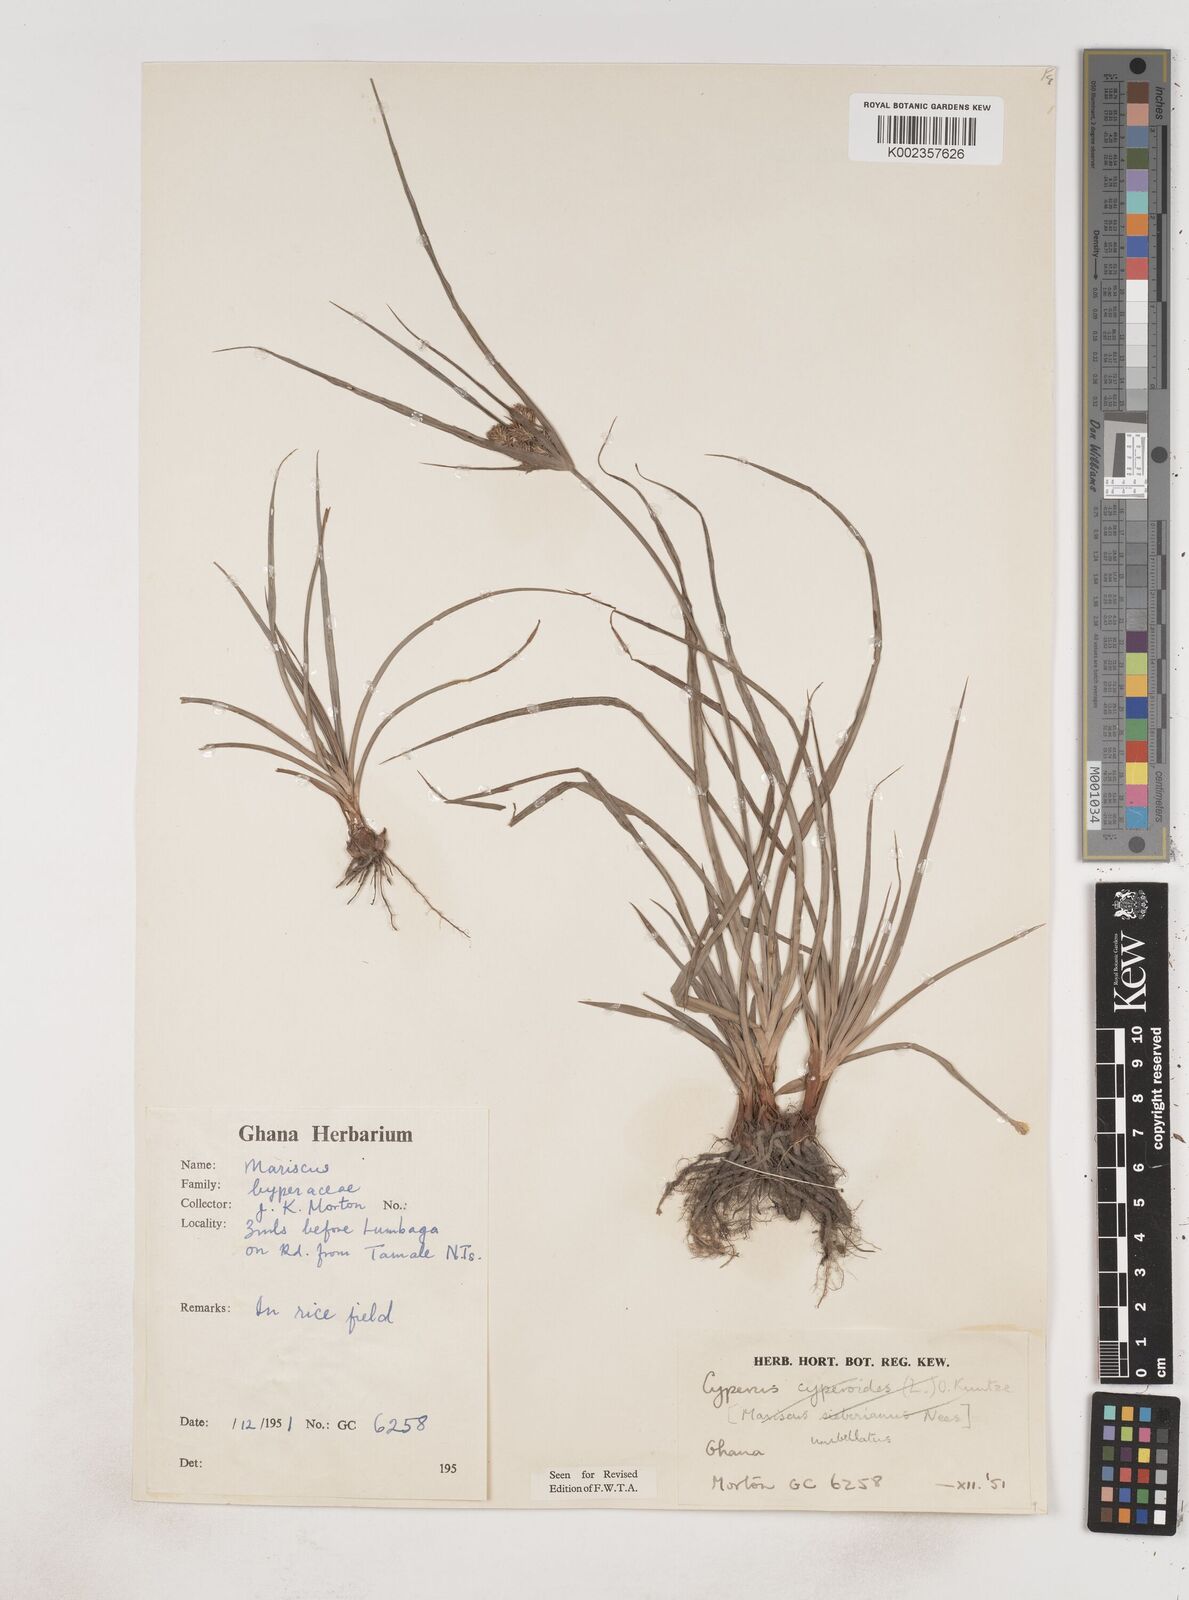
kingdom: Plantae
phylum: Tracheophyta
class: Liliopsida
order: Poales
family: Cyperaceae
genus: Cyperus
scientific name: Cyperus cyperoides
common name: Pacific island flat sedge
